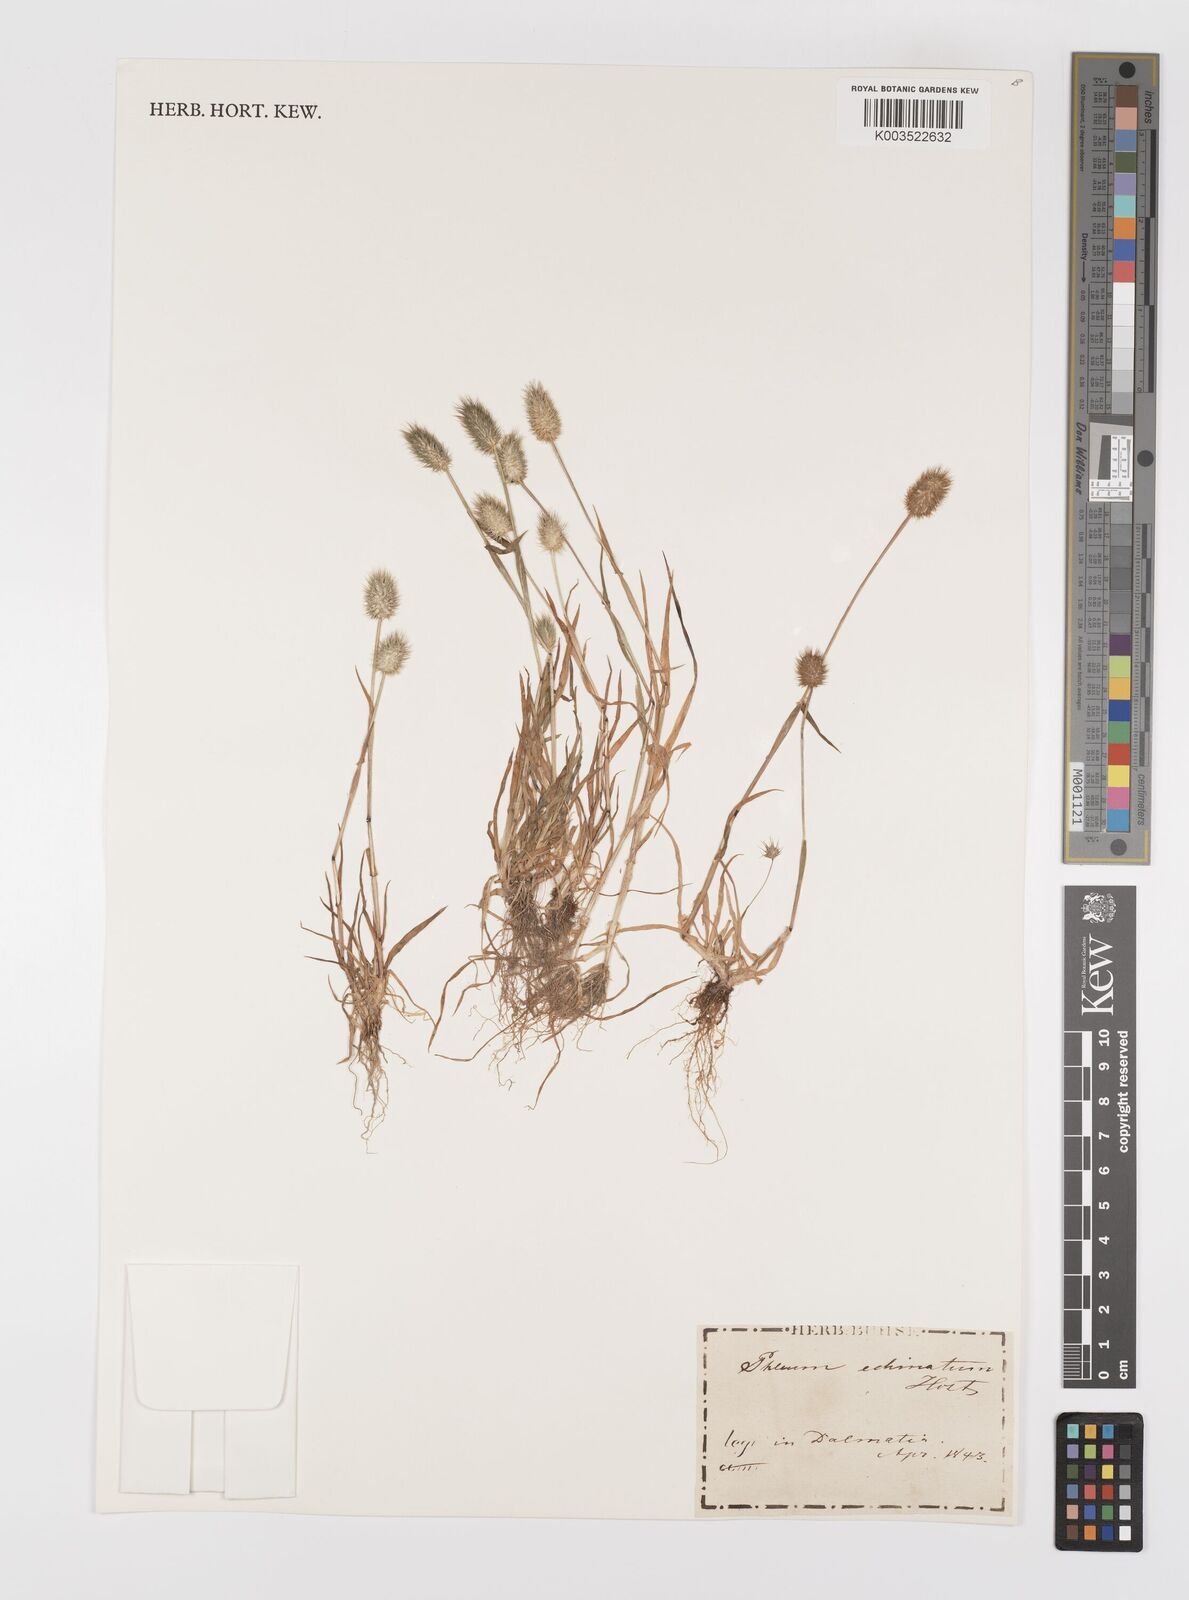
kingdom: Plantae
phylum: Tracheophyta
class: Liliopsida
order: Poales
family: Poaceae
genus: Phleum
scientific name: Phleum echinatum
